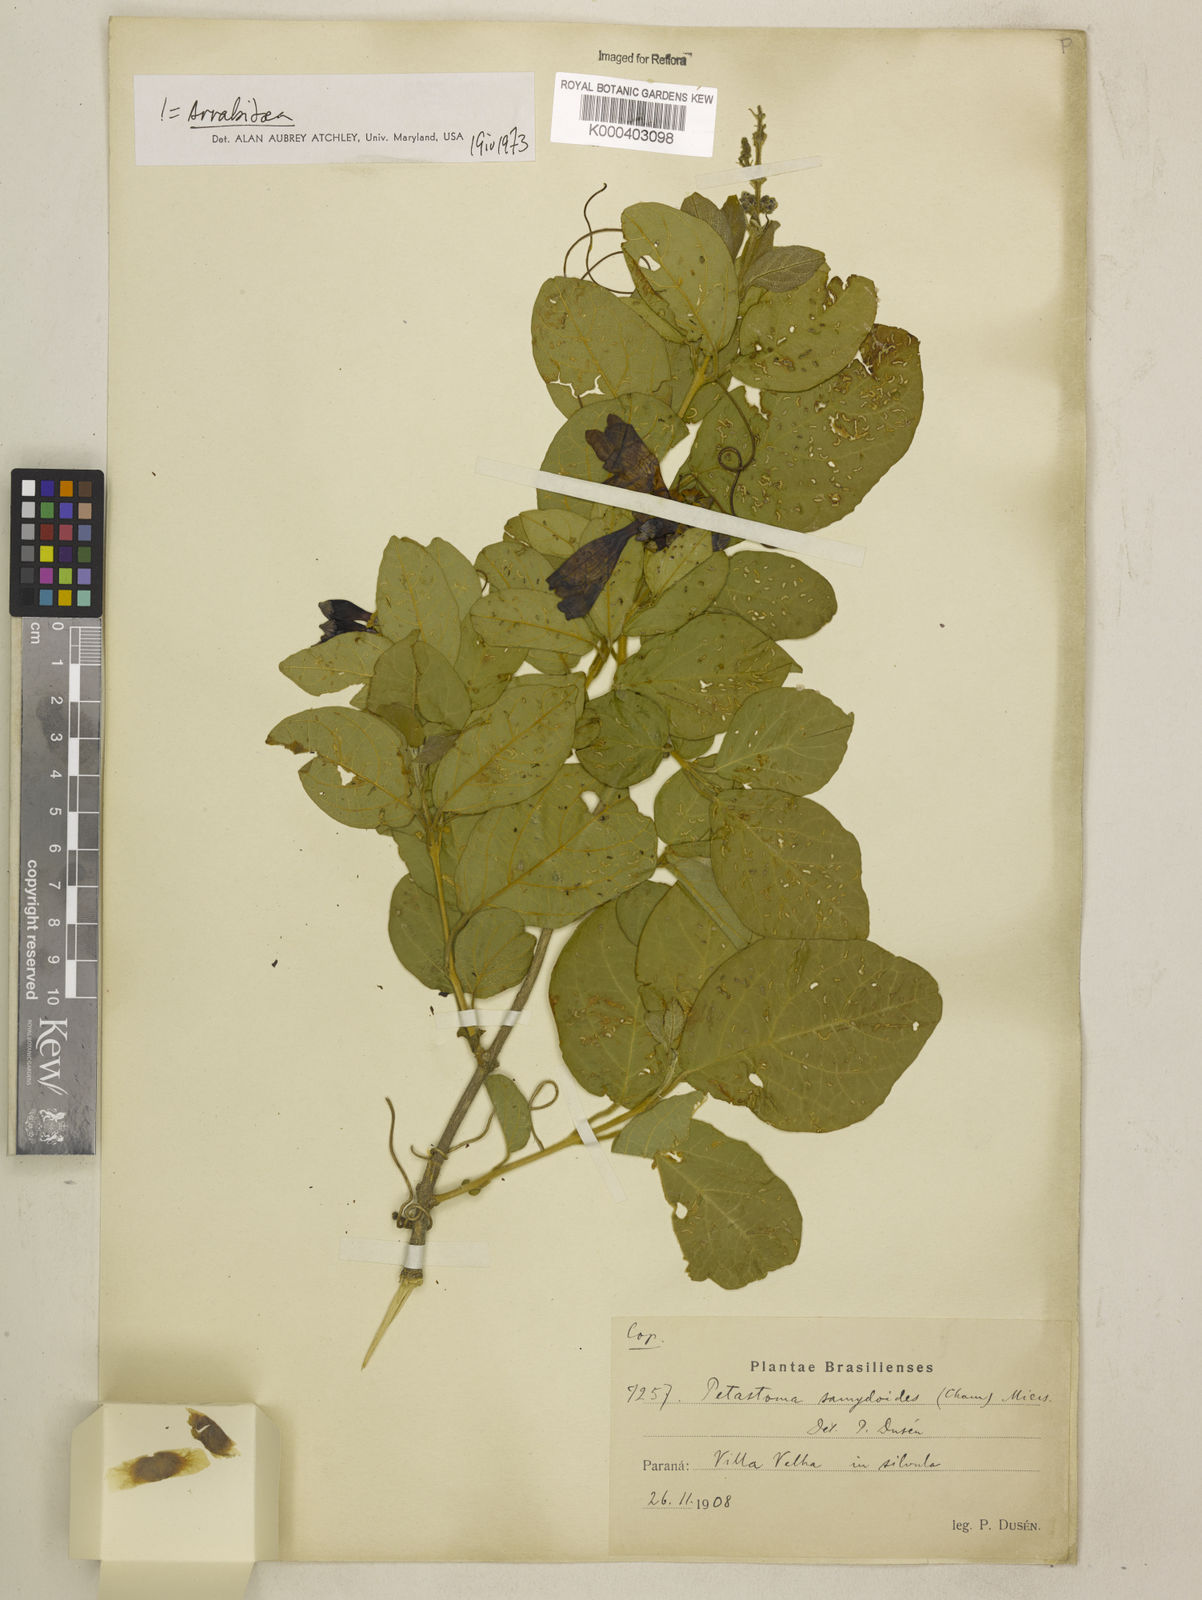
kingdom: Plantae
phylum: Tracheophyta
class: Magnoliopsida
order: Lamiales
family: Bignoniaceae
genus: Fridericia
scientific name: Fridericia samydoides
